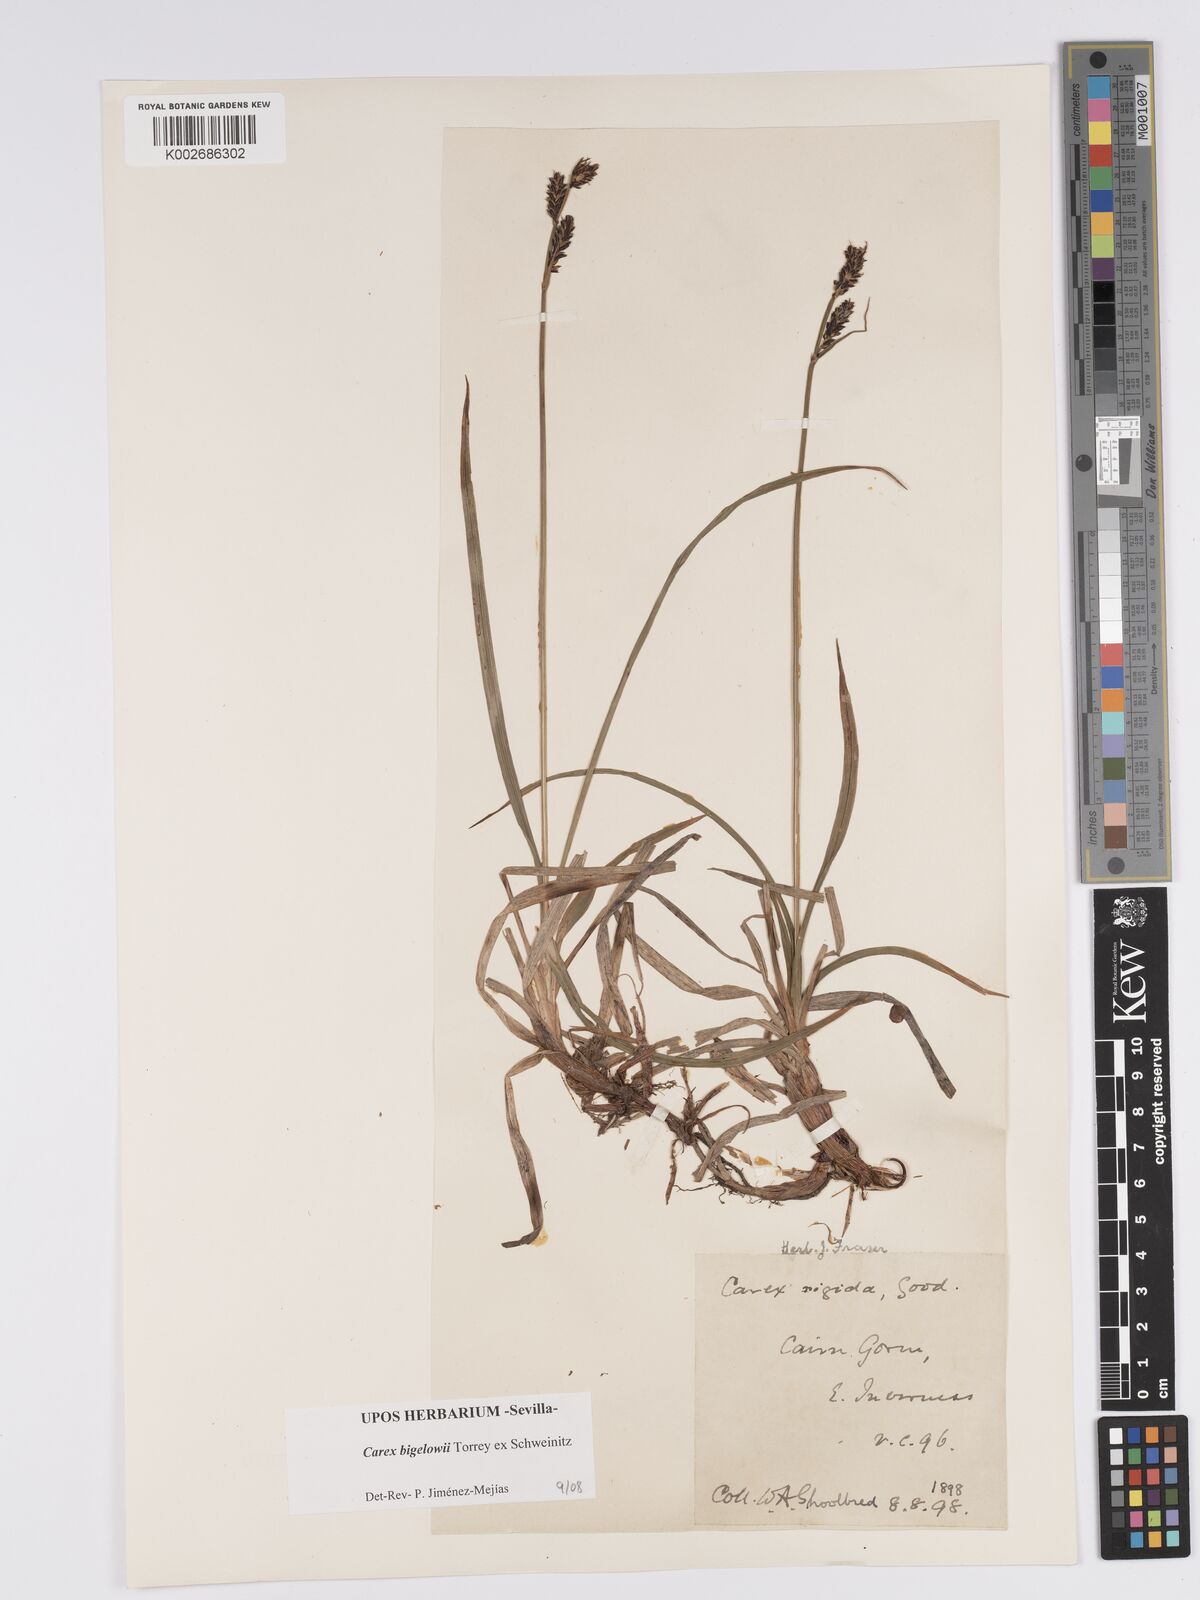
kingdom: Plantae
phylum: Tracheophyta
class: Liliopsida
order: Poales
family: Cyperaceae
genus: Carex
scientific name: Carex bigelowii
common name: Stiff sedge
